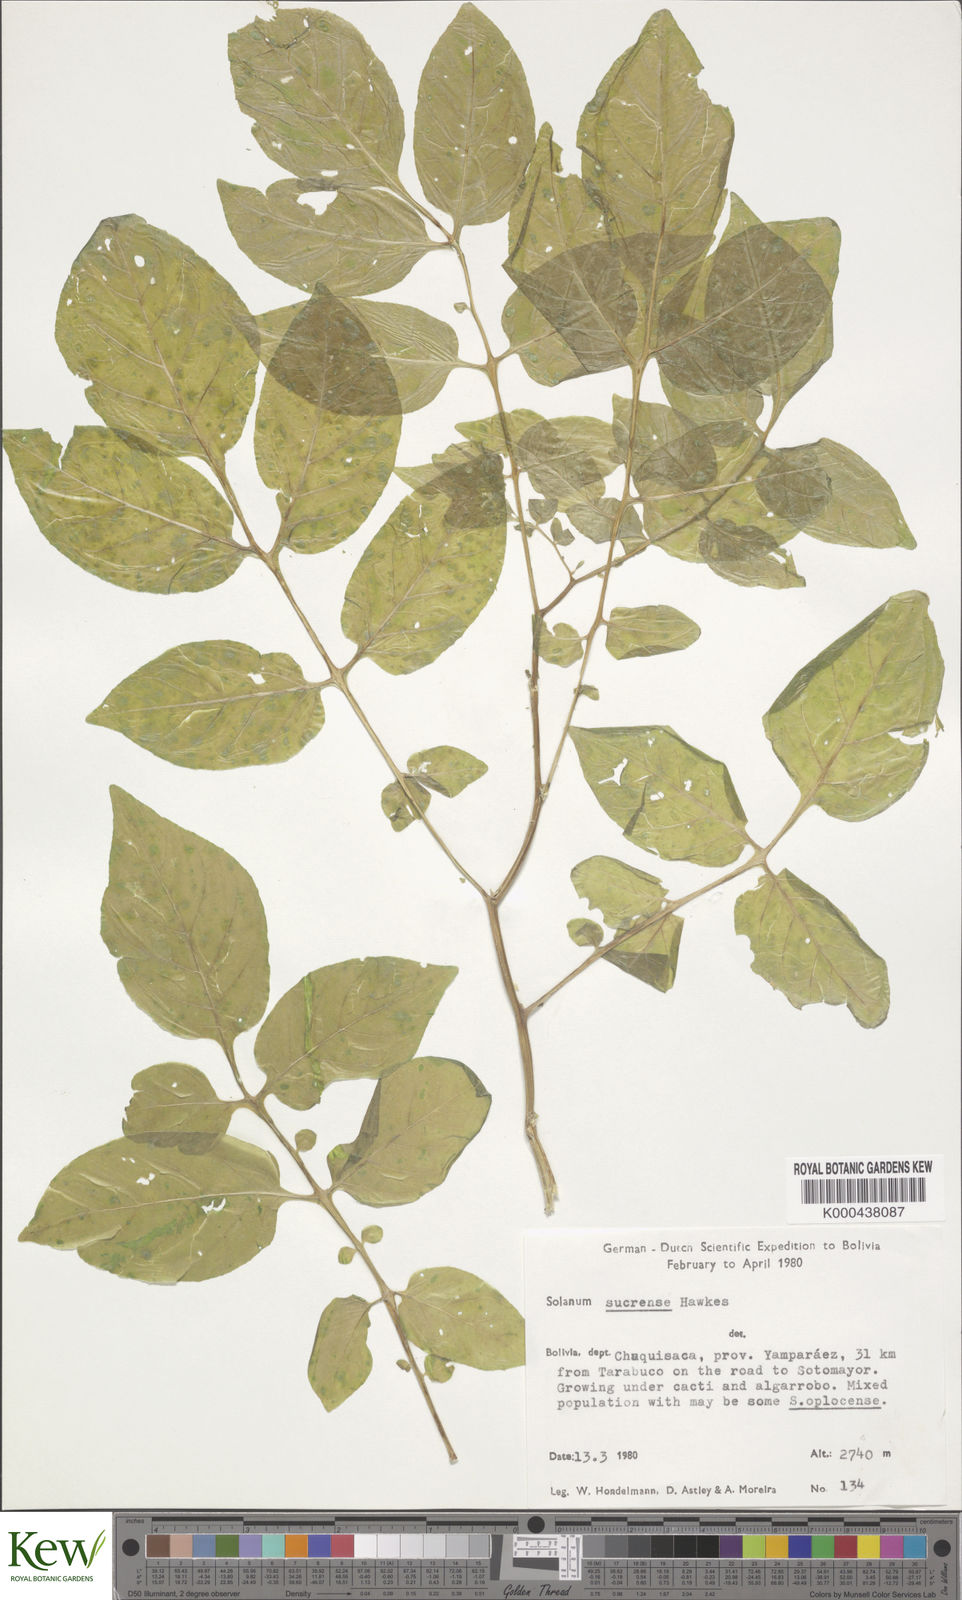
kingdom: Plantae
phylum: Tracheophyta
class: Magnoliopsida
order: Solanales
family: Solanaceae
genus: Solanum
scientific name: Solanum brevicaule
